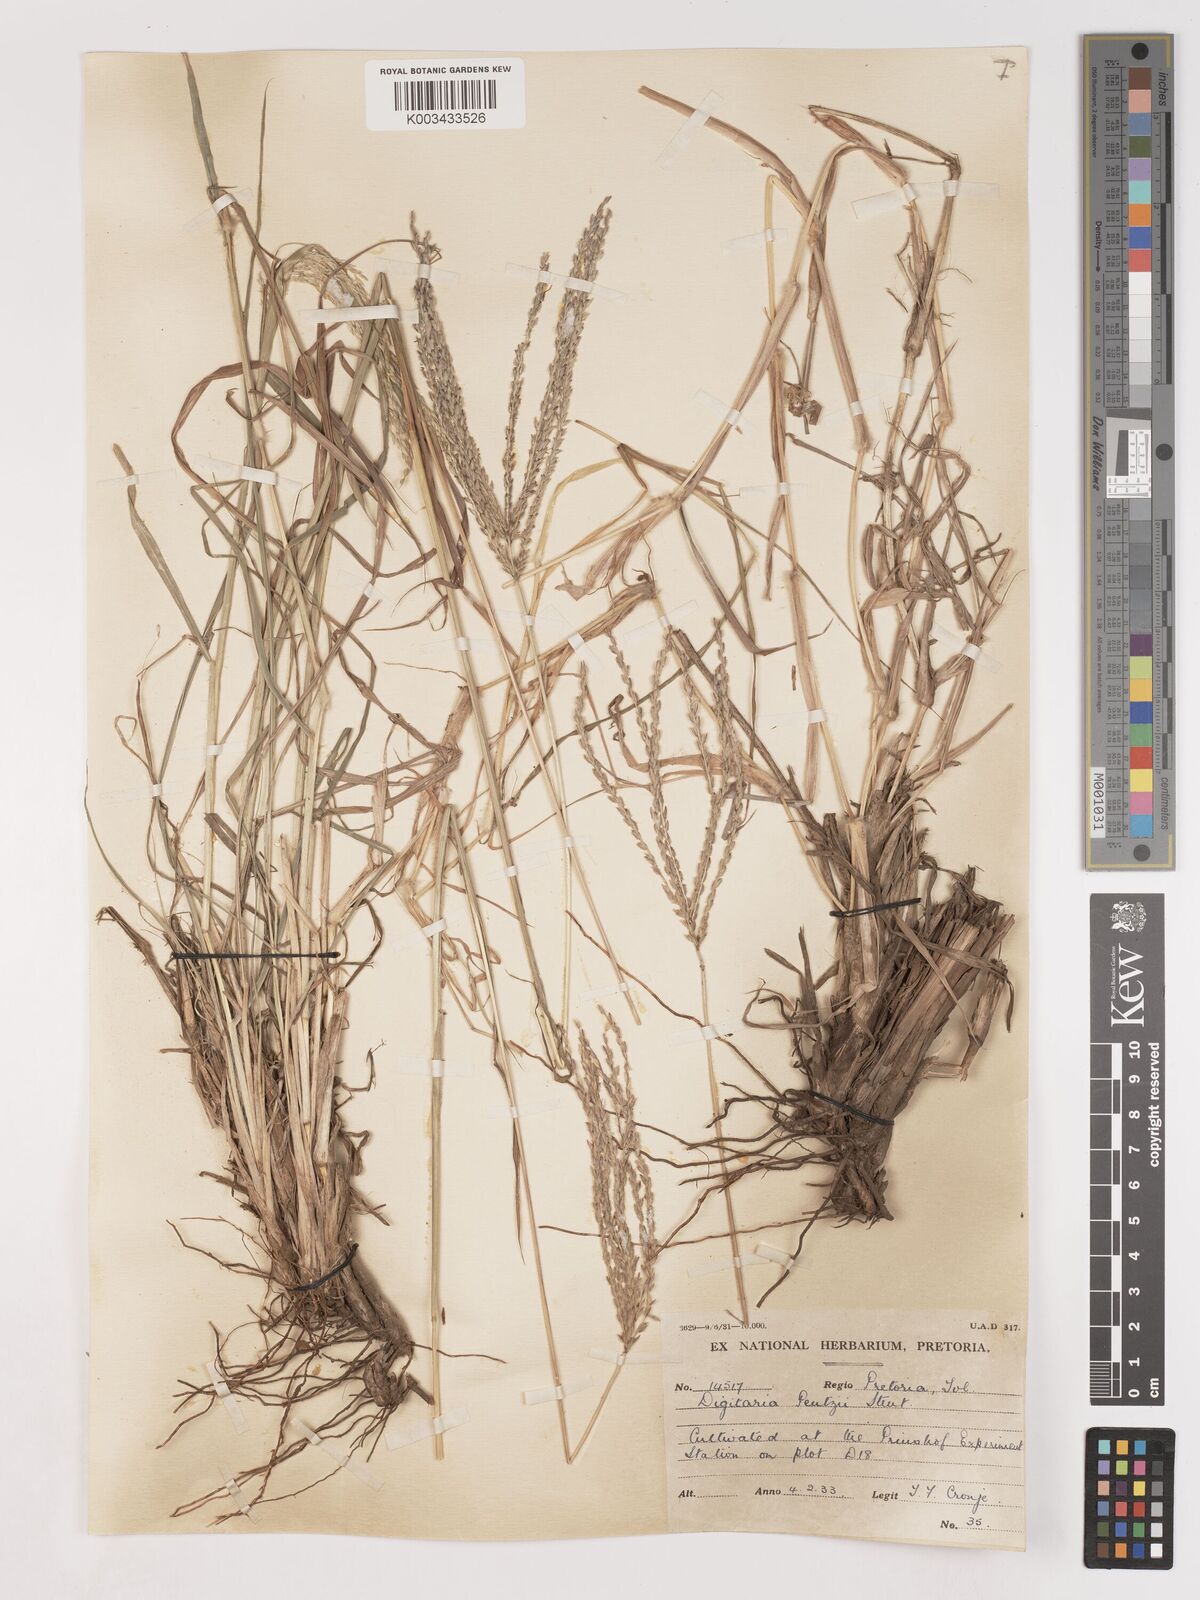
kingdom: Plantae
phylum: Tracheophyta
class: Liliopsida
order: Poales
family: Poaceae
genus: Digitaria
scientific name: Digitaria eriantha
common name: Digitgrass
